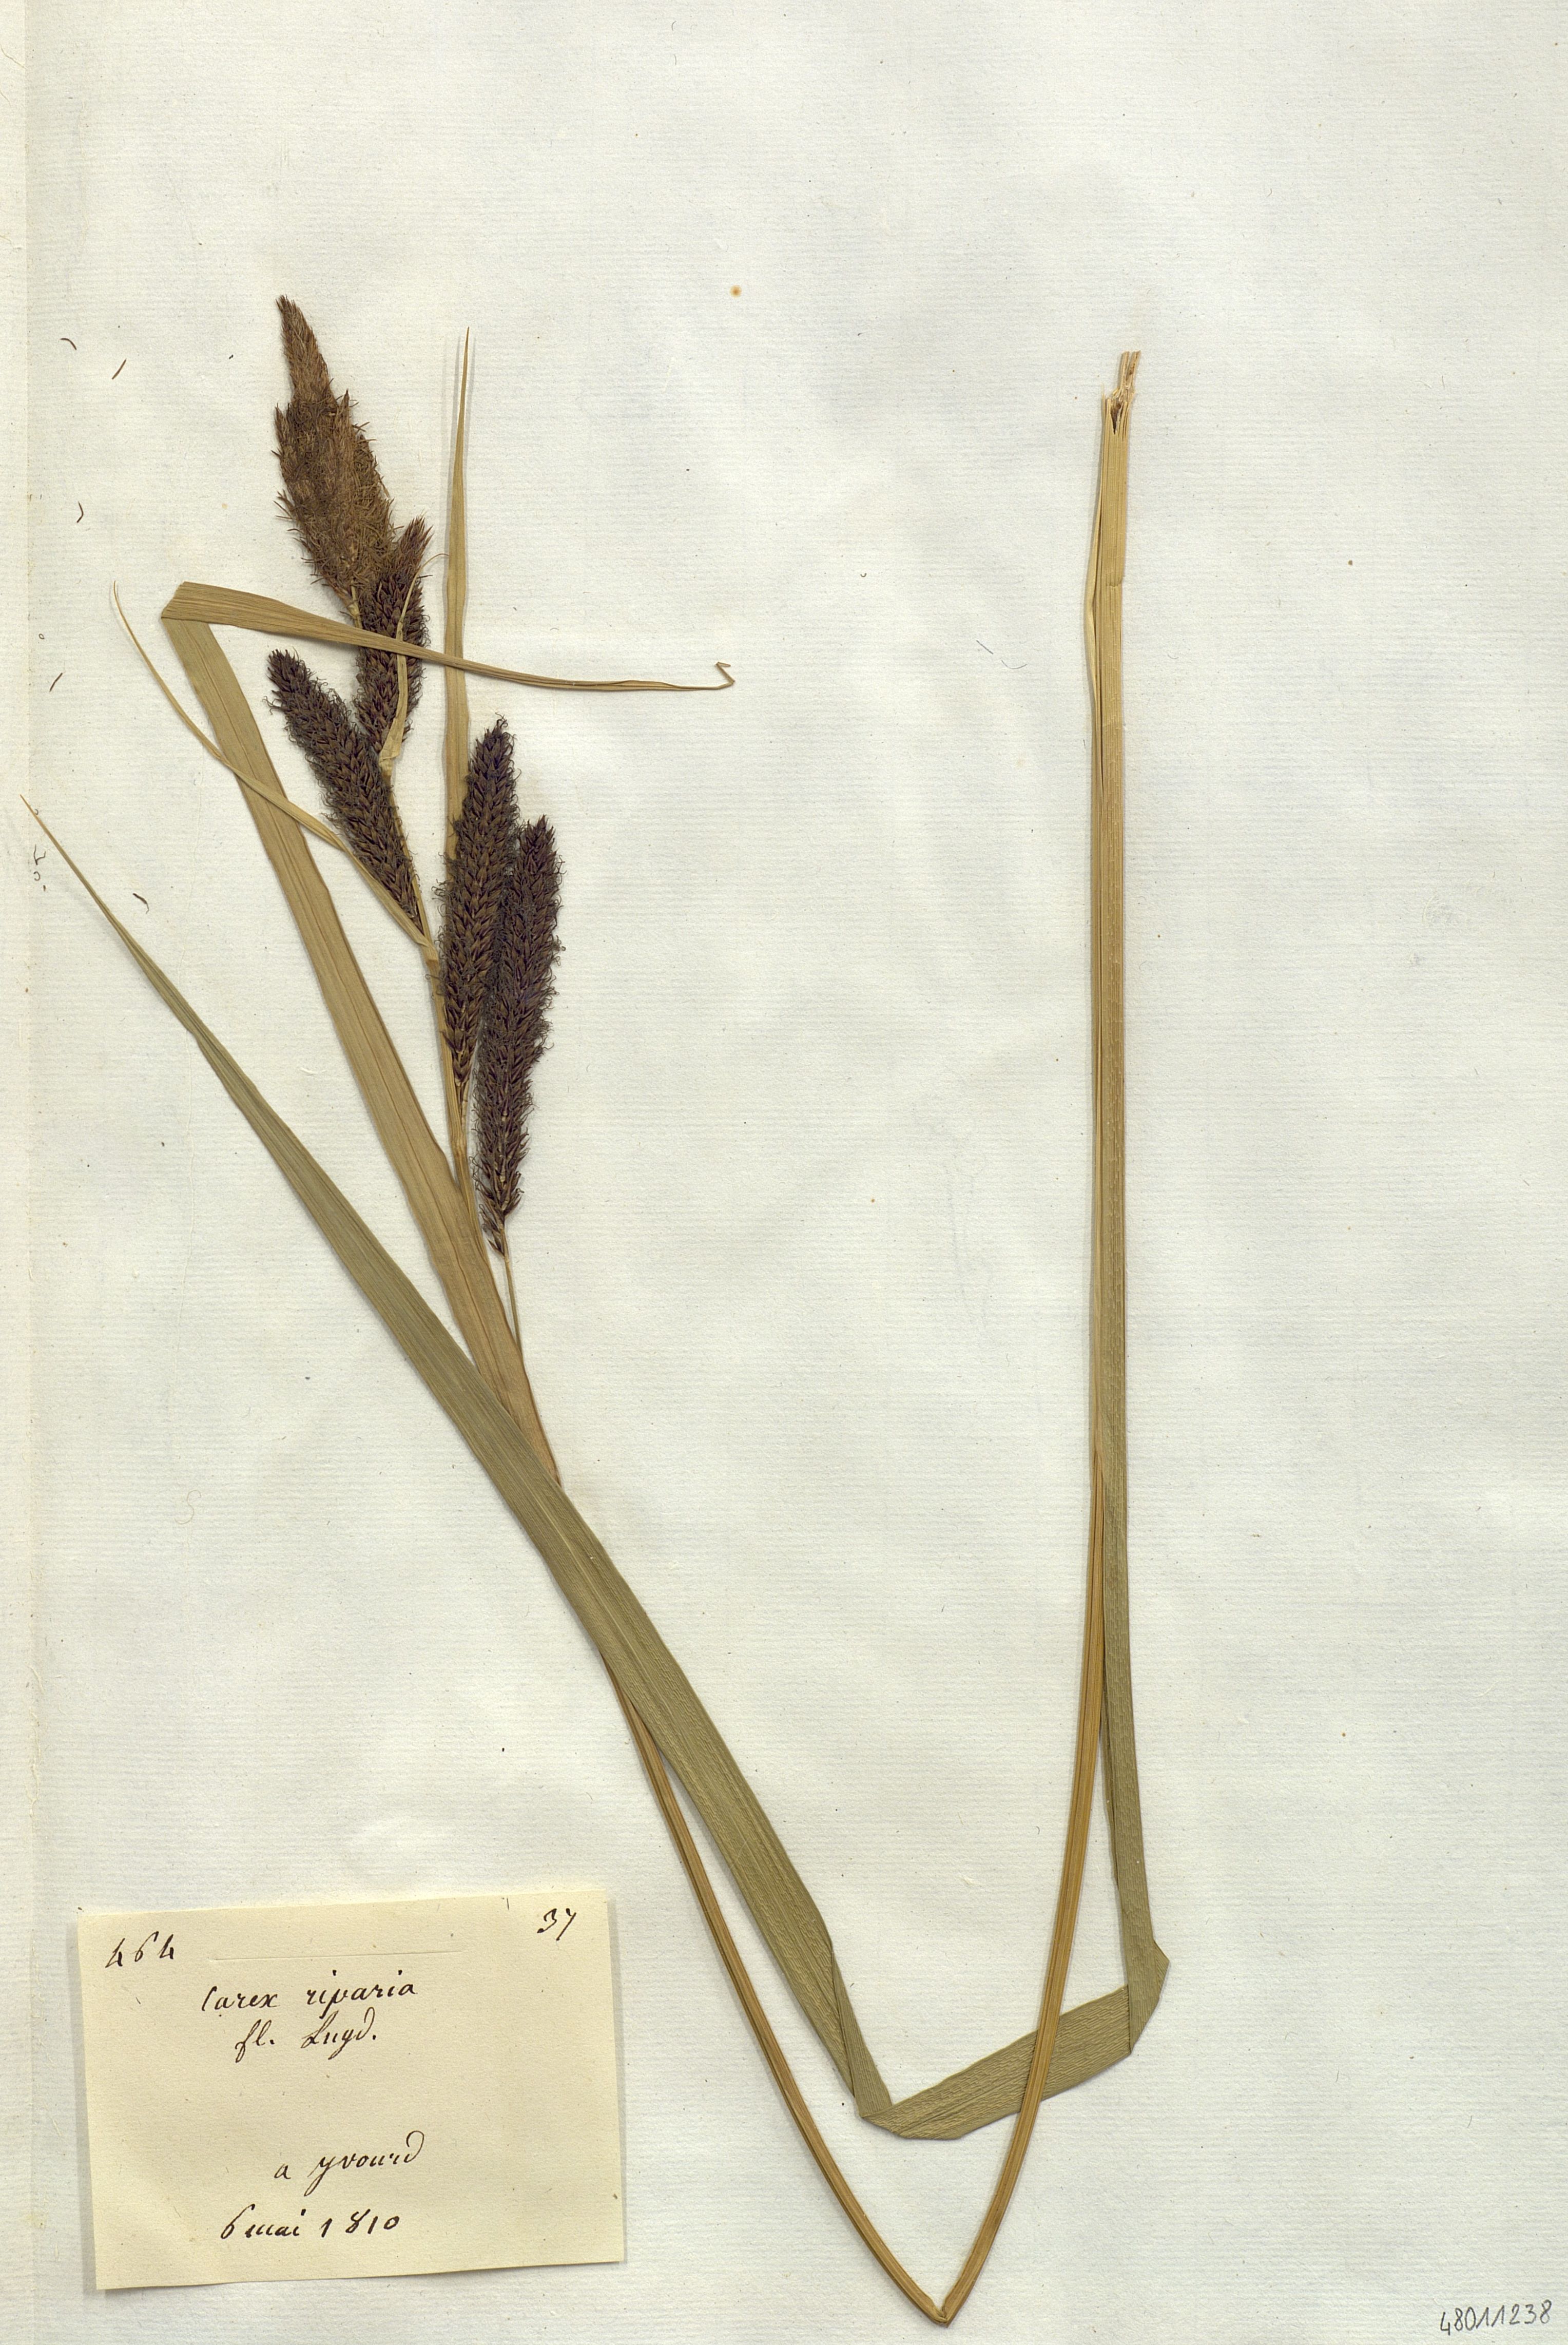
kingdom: Plantae
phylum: Tracheophyta
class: Liliopsida
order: Poales
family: Cyperaceae
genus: Carex
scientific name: Carex riparia
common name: Greater pond-sedge
